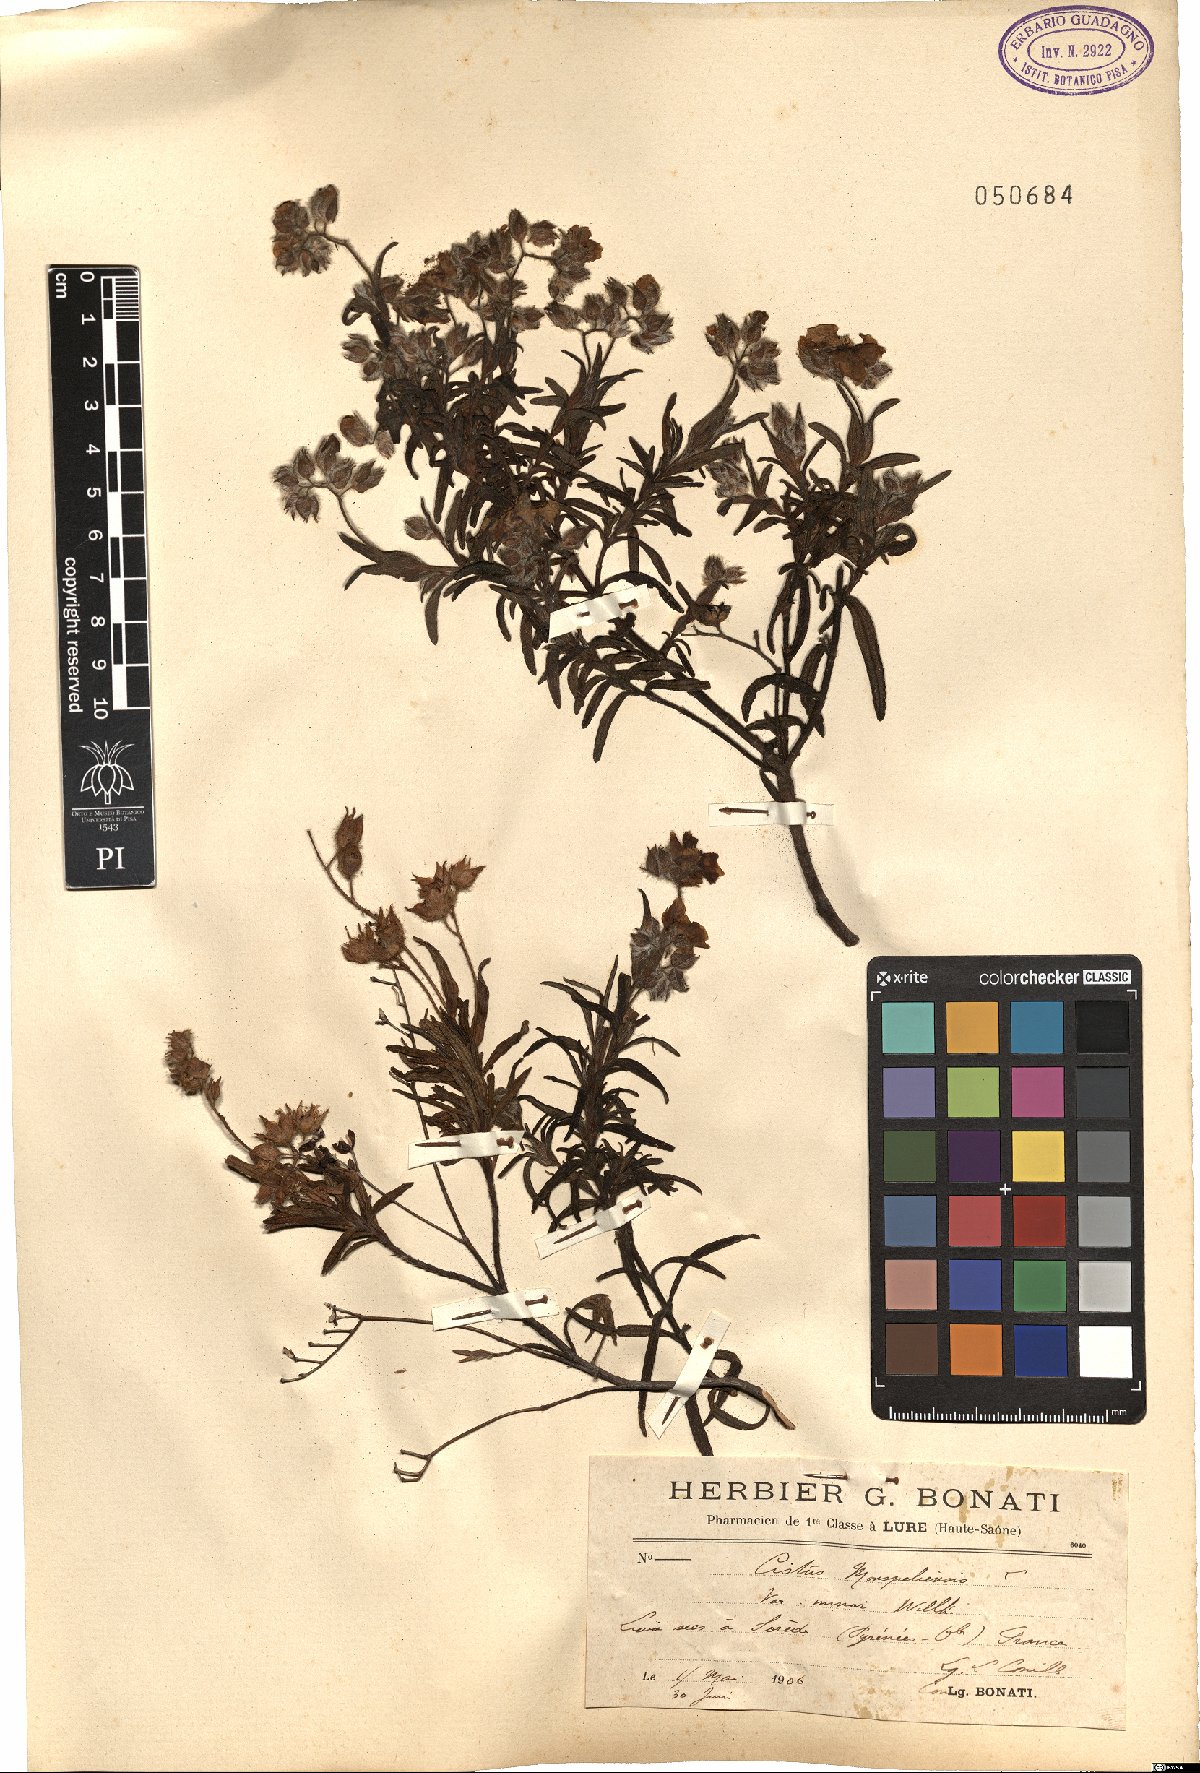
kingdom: Plantae
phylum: Tracheophyta
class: Magnoliopsida
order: Malvales
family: Cistaceae
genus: Cistus
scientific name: Cistus monspeliensis
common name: Montpelier cistus
